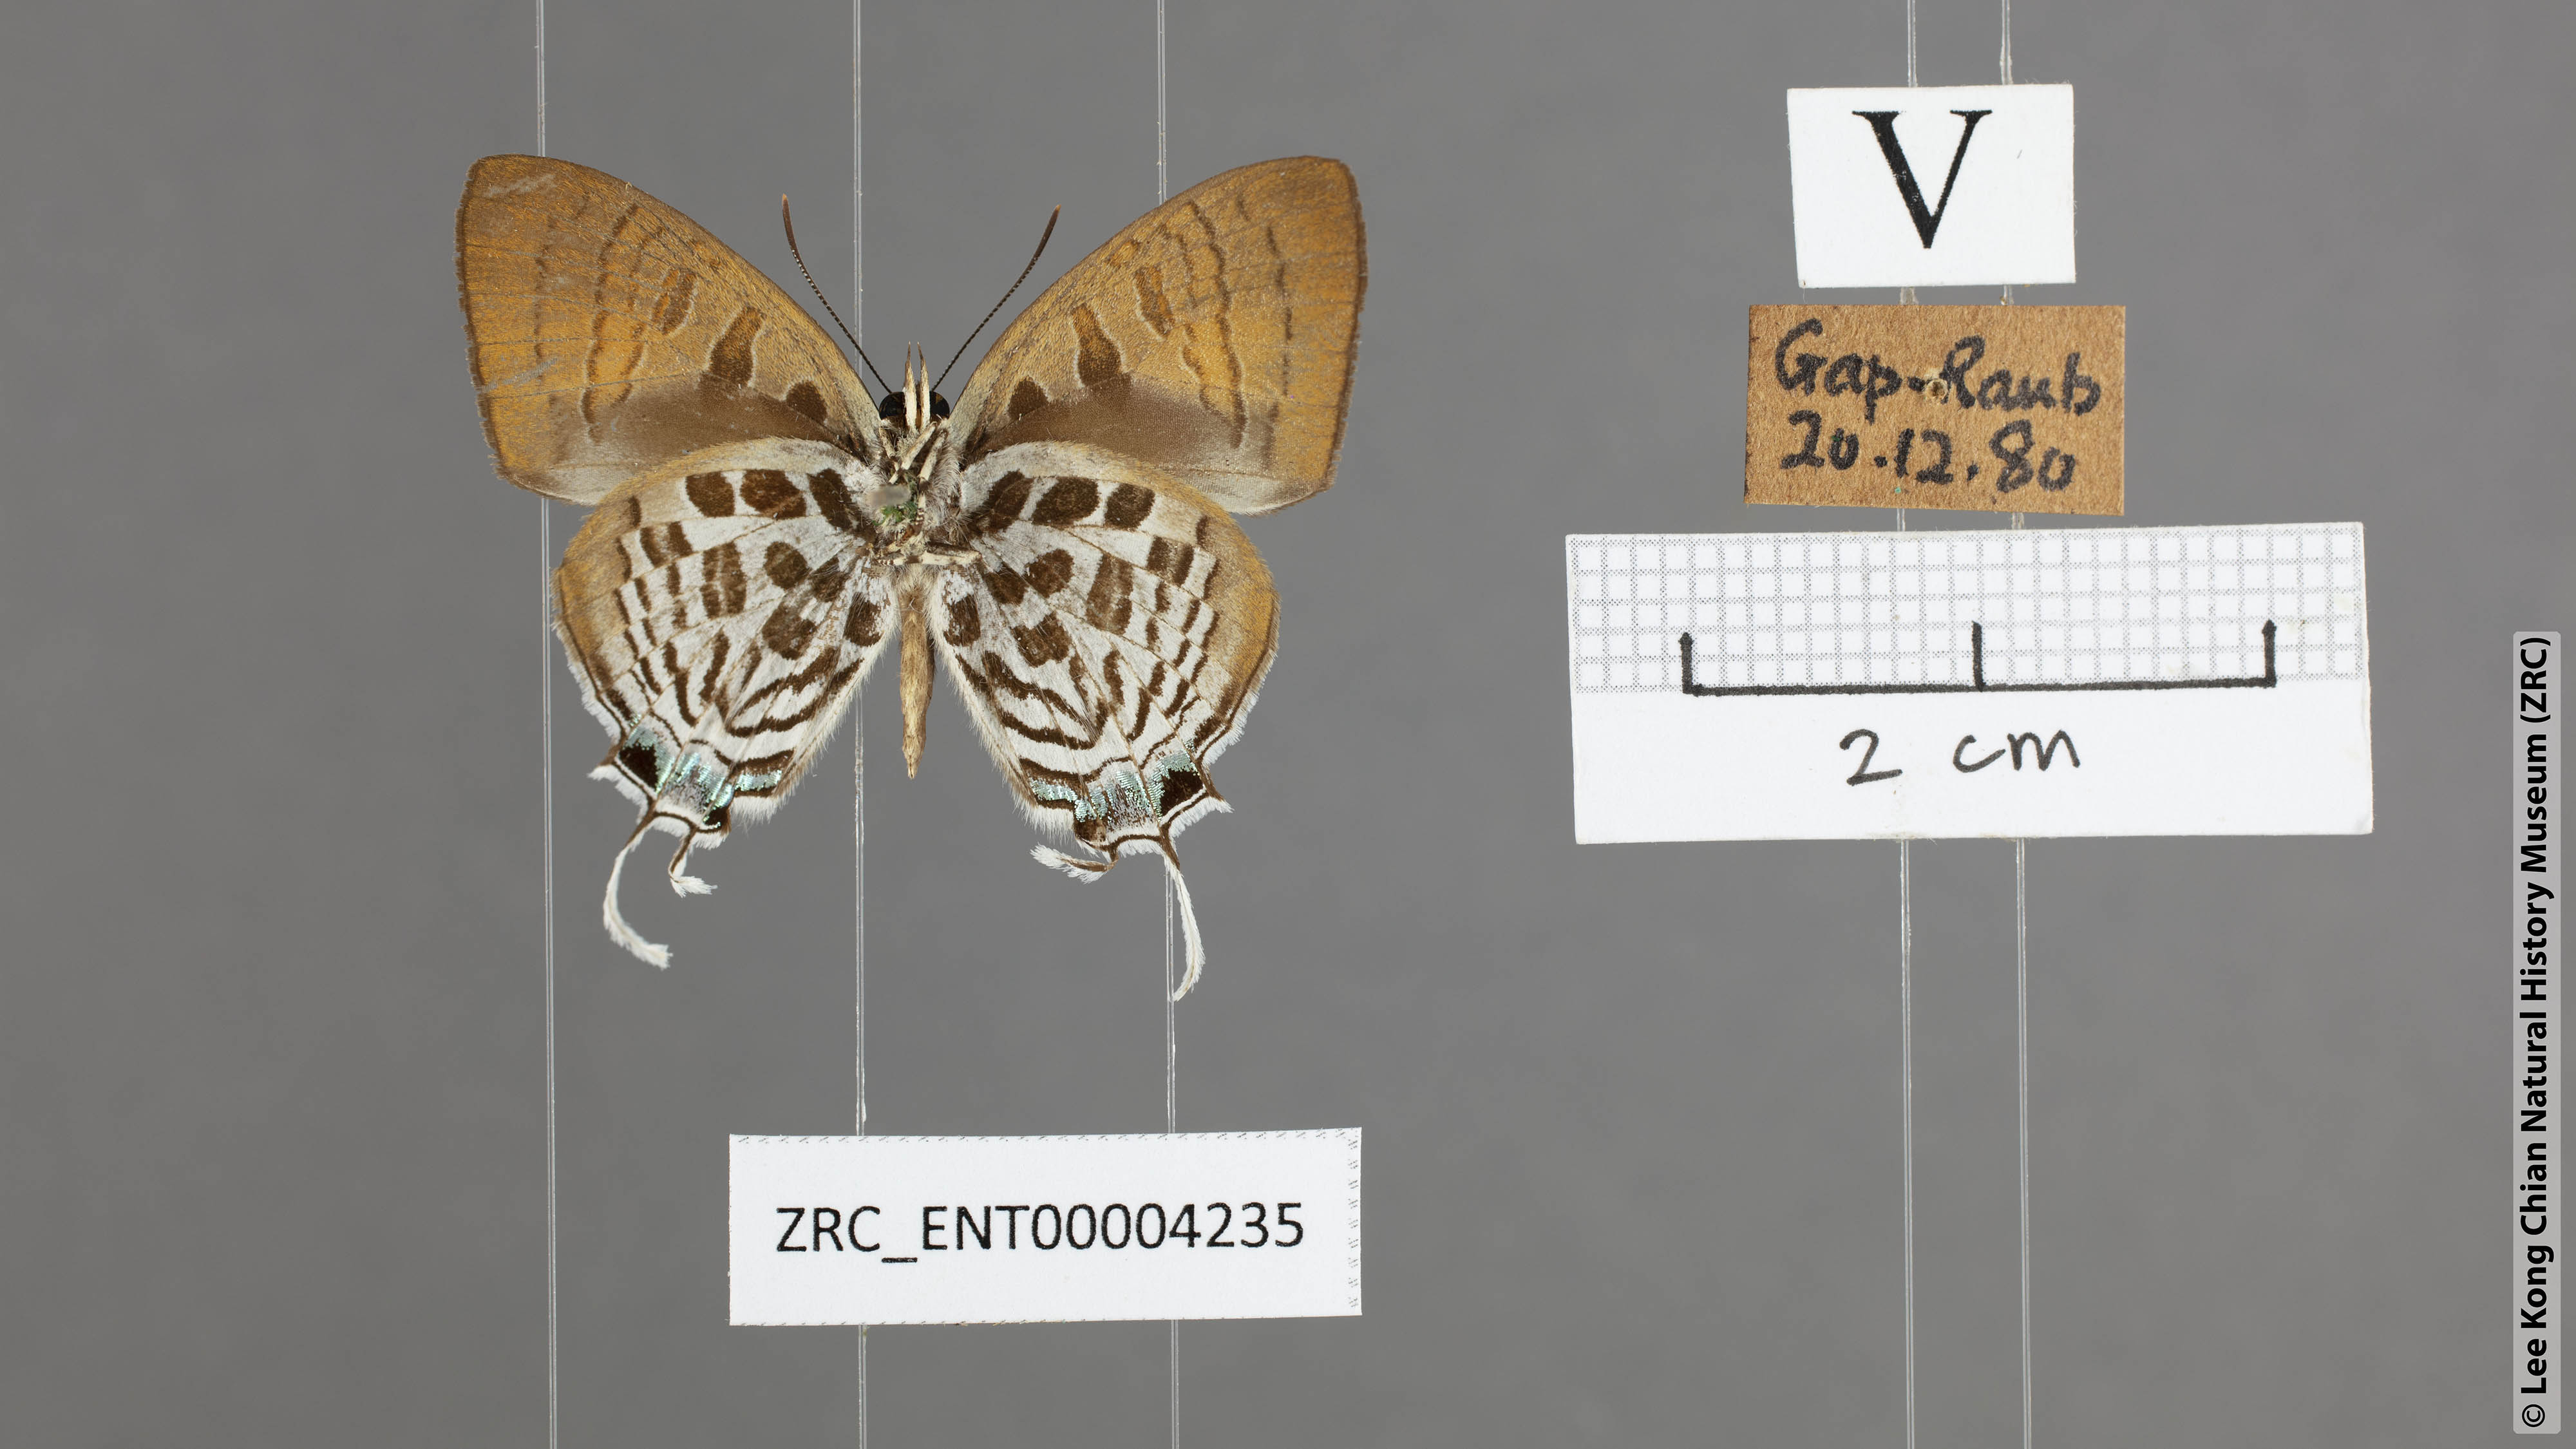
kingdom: Animalia
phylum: Arthropoda
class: Insecta
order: Lepidoptera
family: Lycaenidae
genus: Drupadia
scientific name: Drupadia theda
